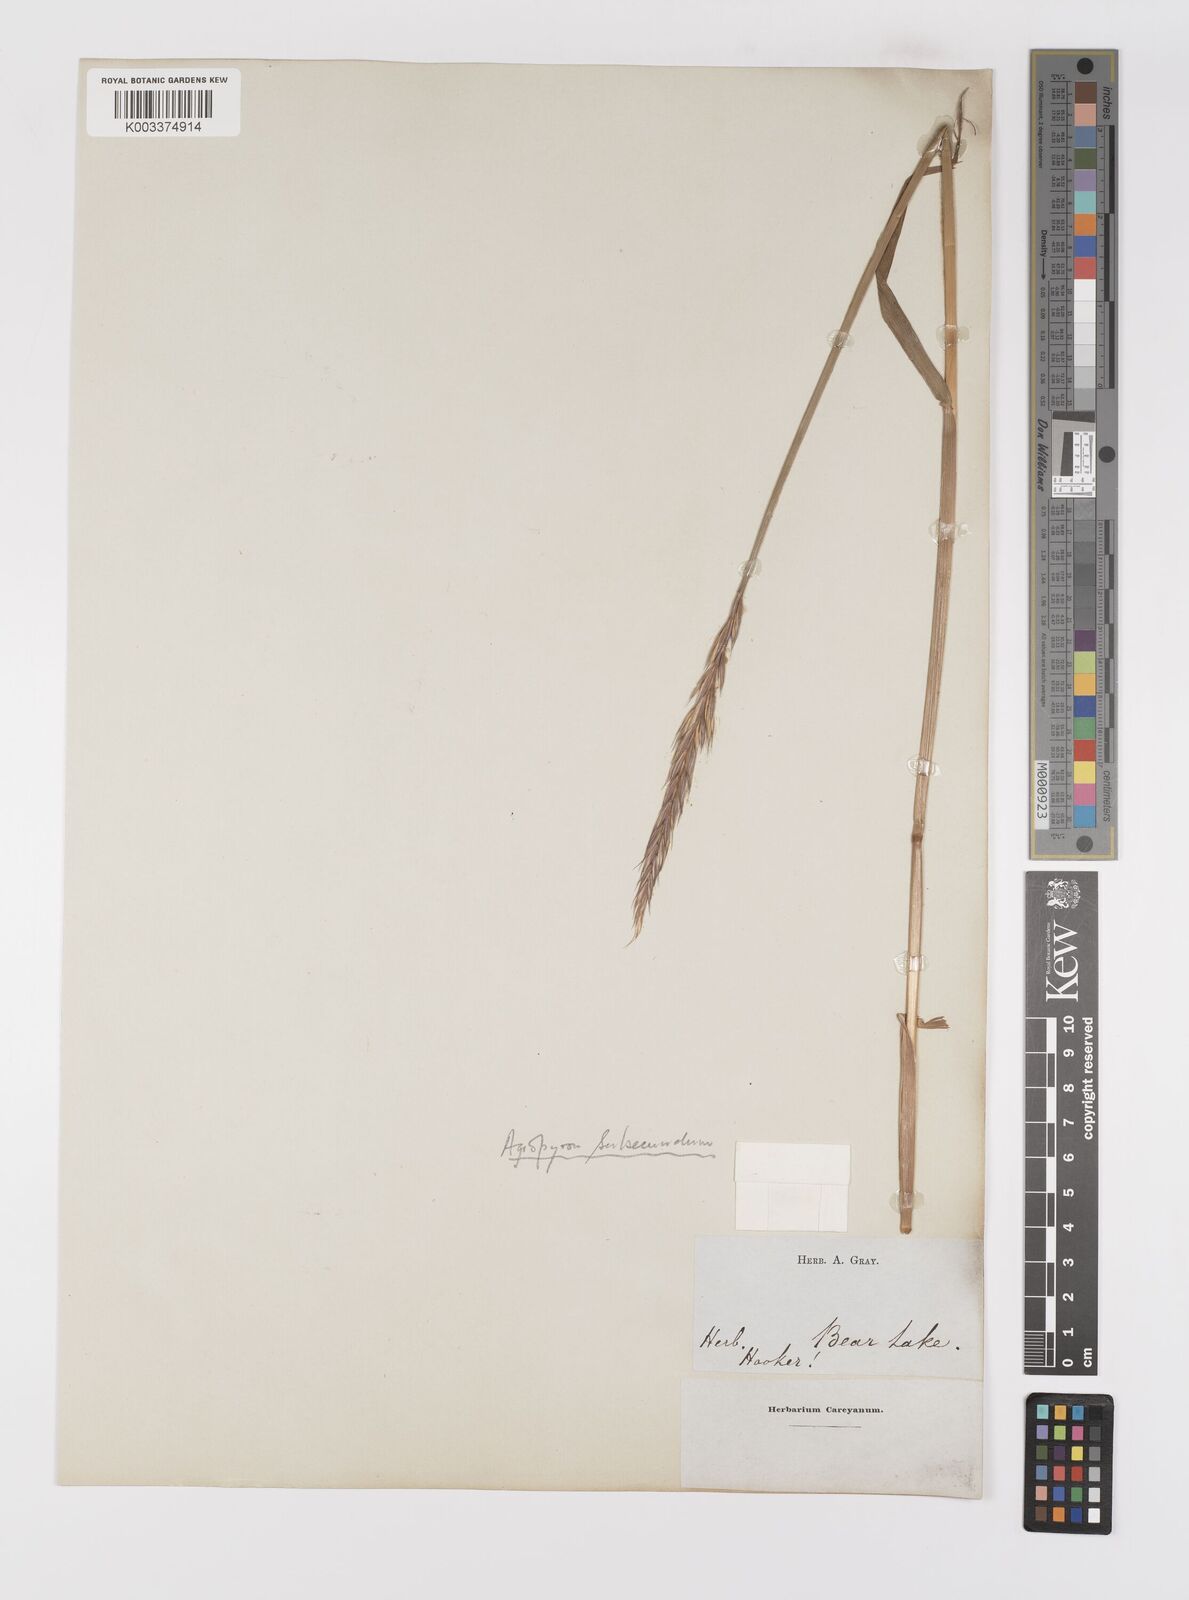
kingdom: Plantae
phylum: Tracheophyta
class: Liliopsida
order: Poales
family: Poaceae
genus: Elymus
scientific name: Elymus violaceus
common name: Arctic wheatgrass
